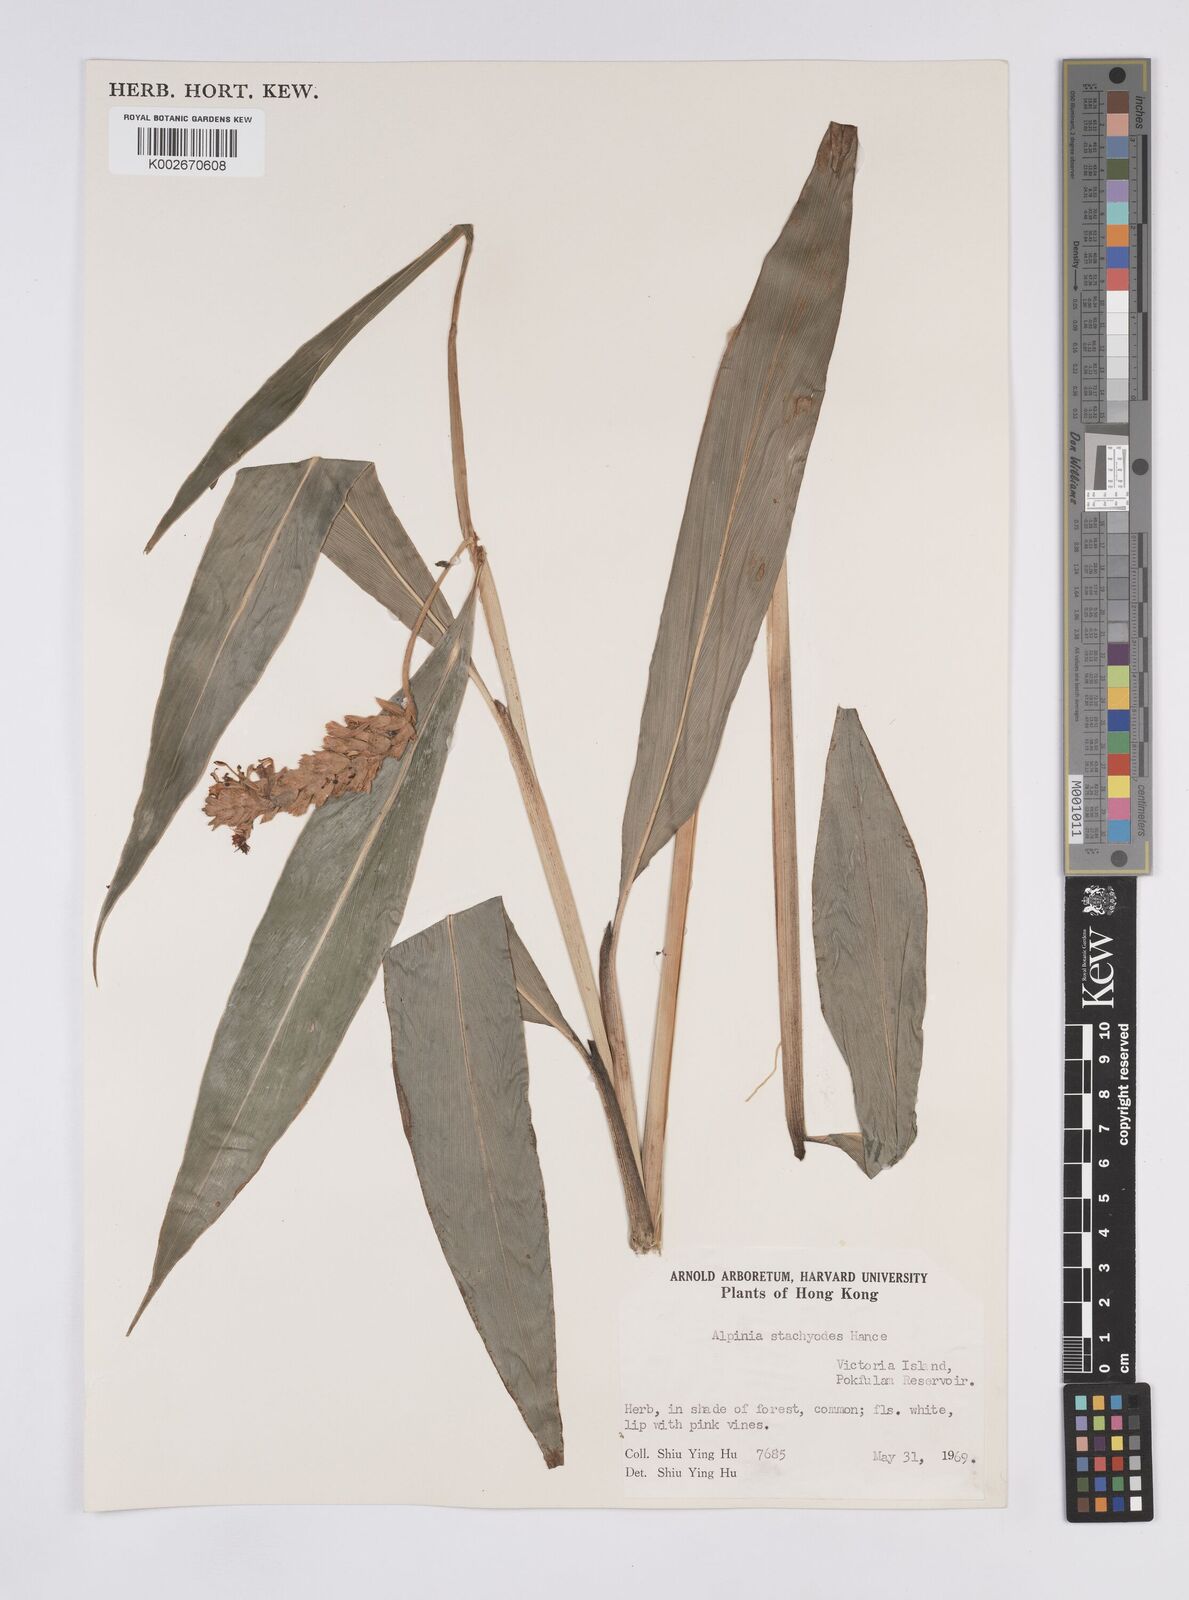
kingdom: Plantae
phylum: Tracheophyta
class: Liliopsida
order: Zingiberales
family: Zingiberaceae
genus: Alpinia
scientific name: Alpinia stachyodes
